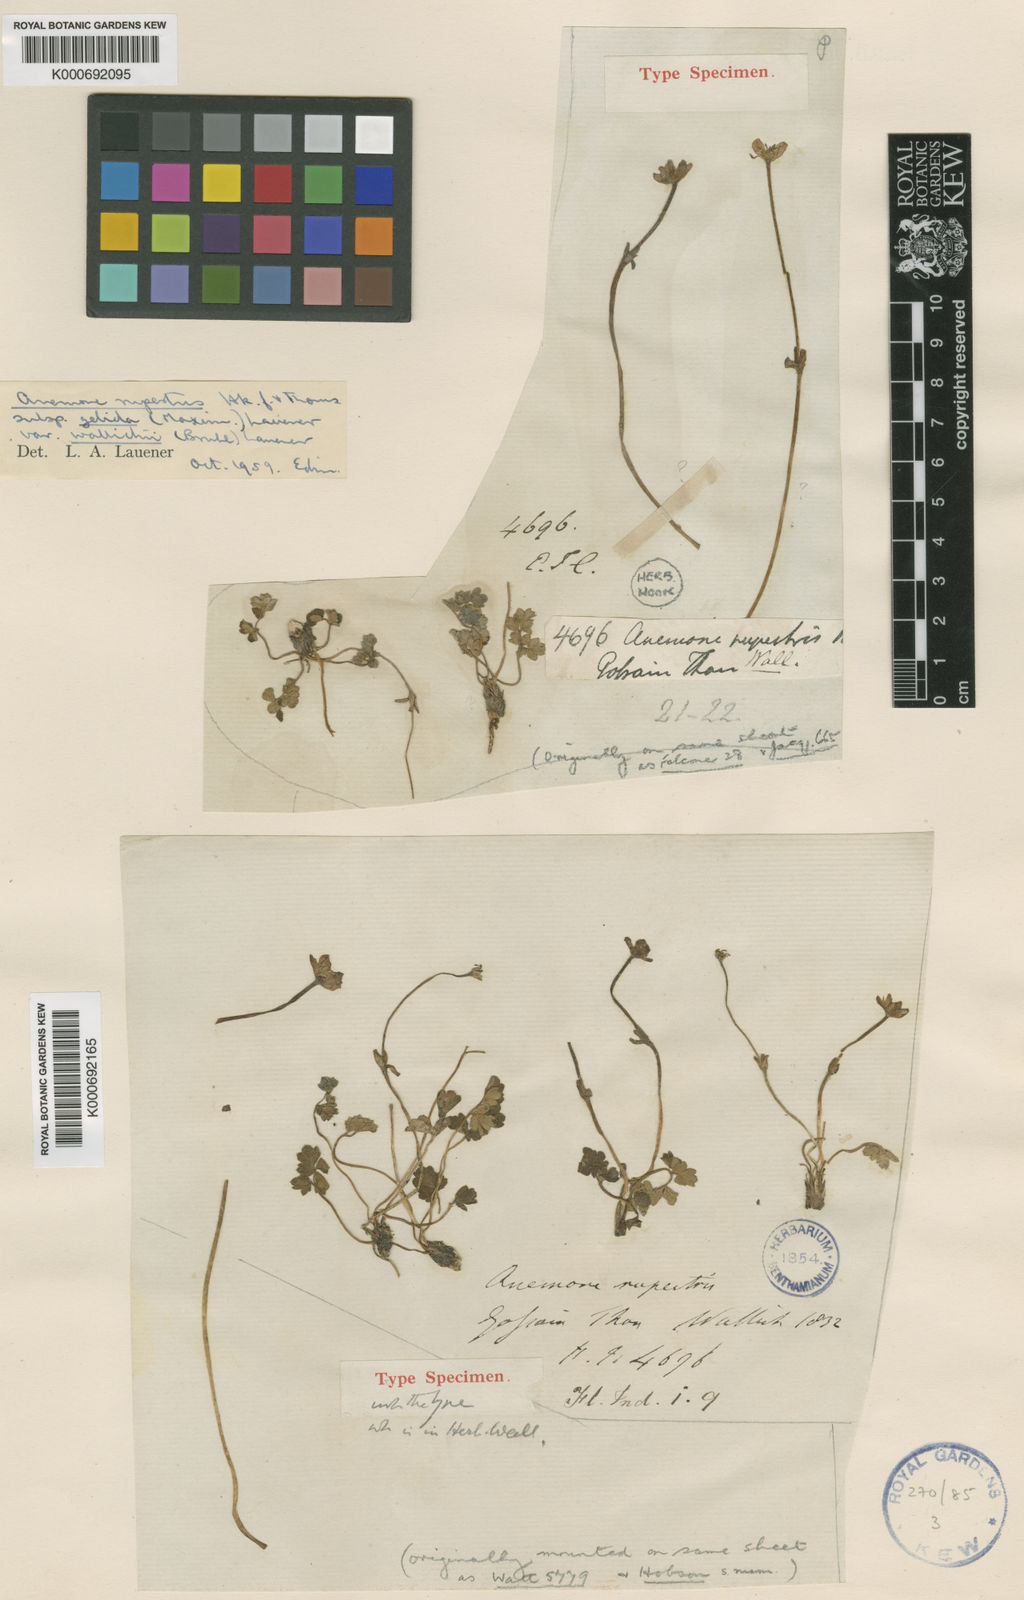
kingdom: Plantae
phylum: Tracheophyta
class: Magnoliopsida
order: Ranunculales
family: Ranunculaceae
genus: Anemone
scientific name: Anemone
